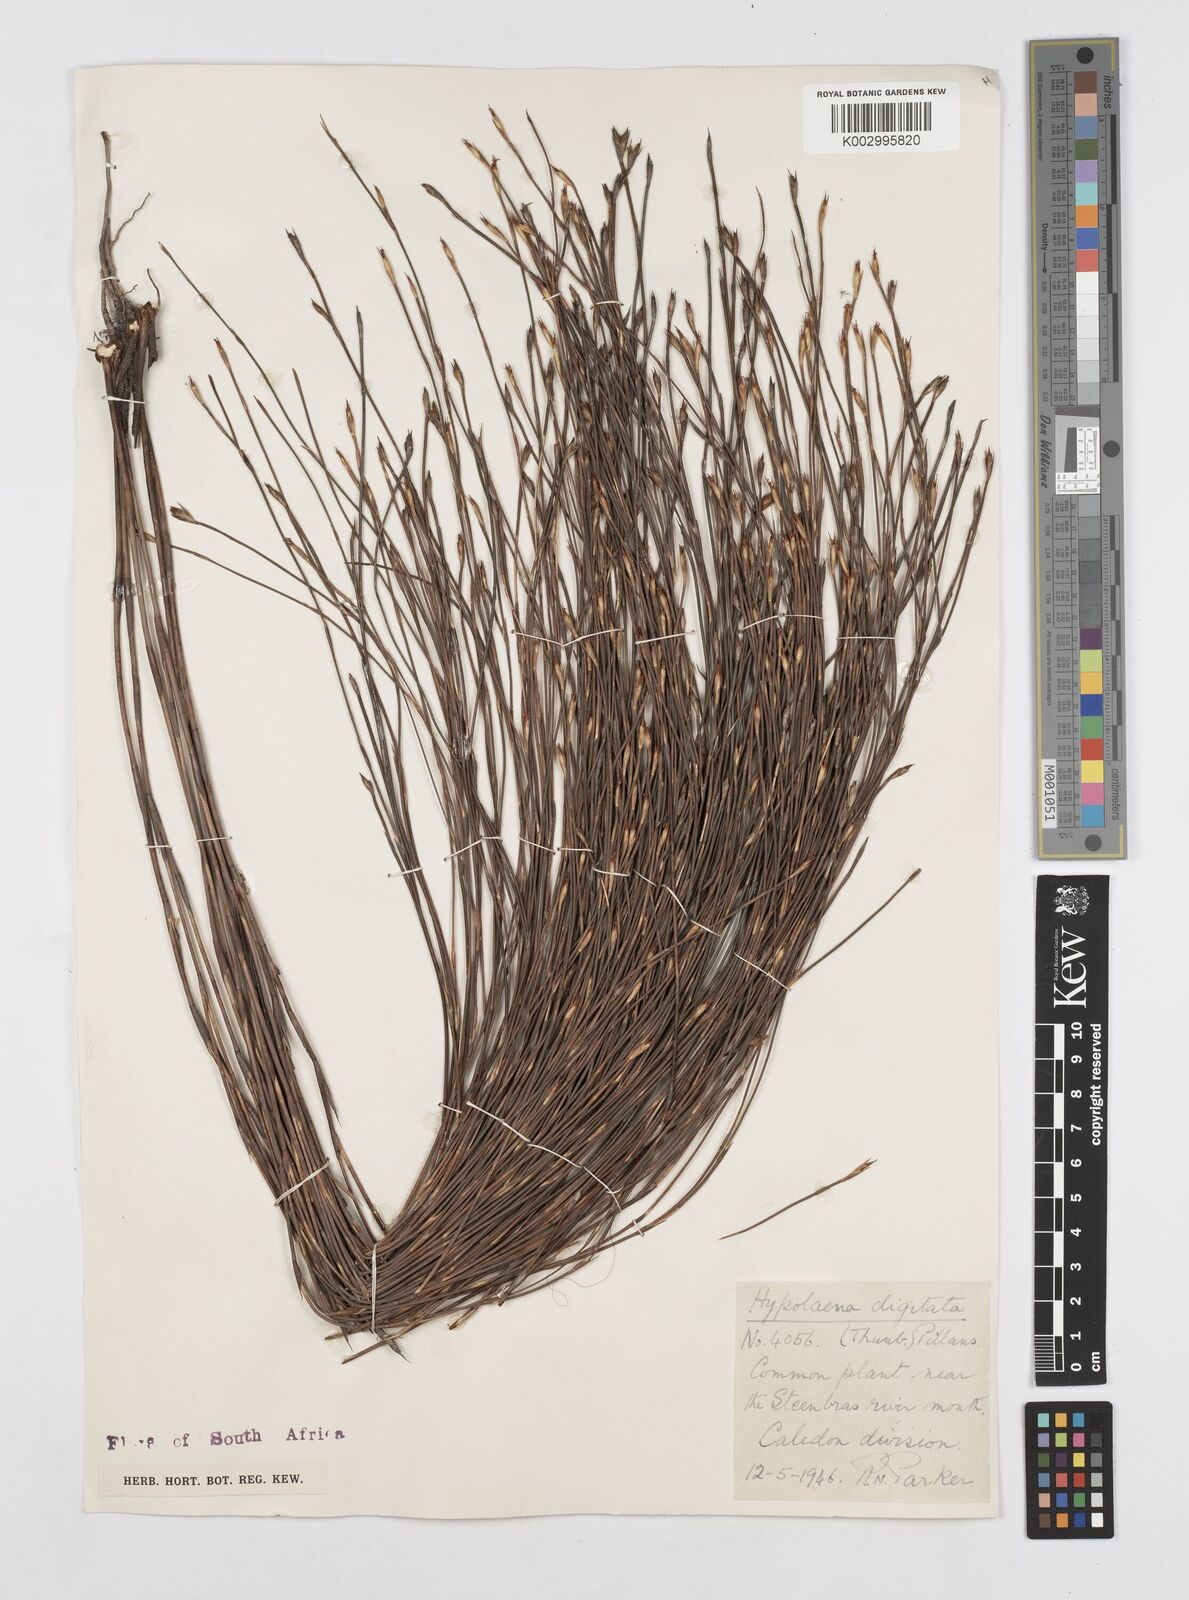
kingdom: Plantae
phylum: Tracheophyta
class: Liliopsida
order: Poales
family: Restionaceae
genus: Mastersiella
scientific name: Mastersiella digitata
